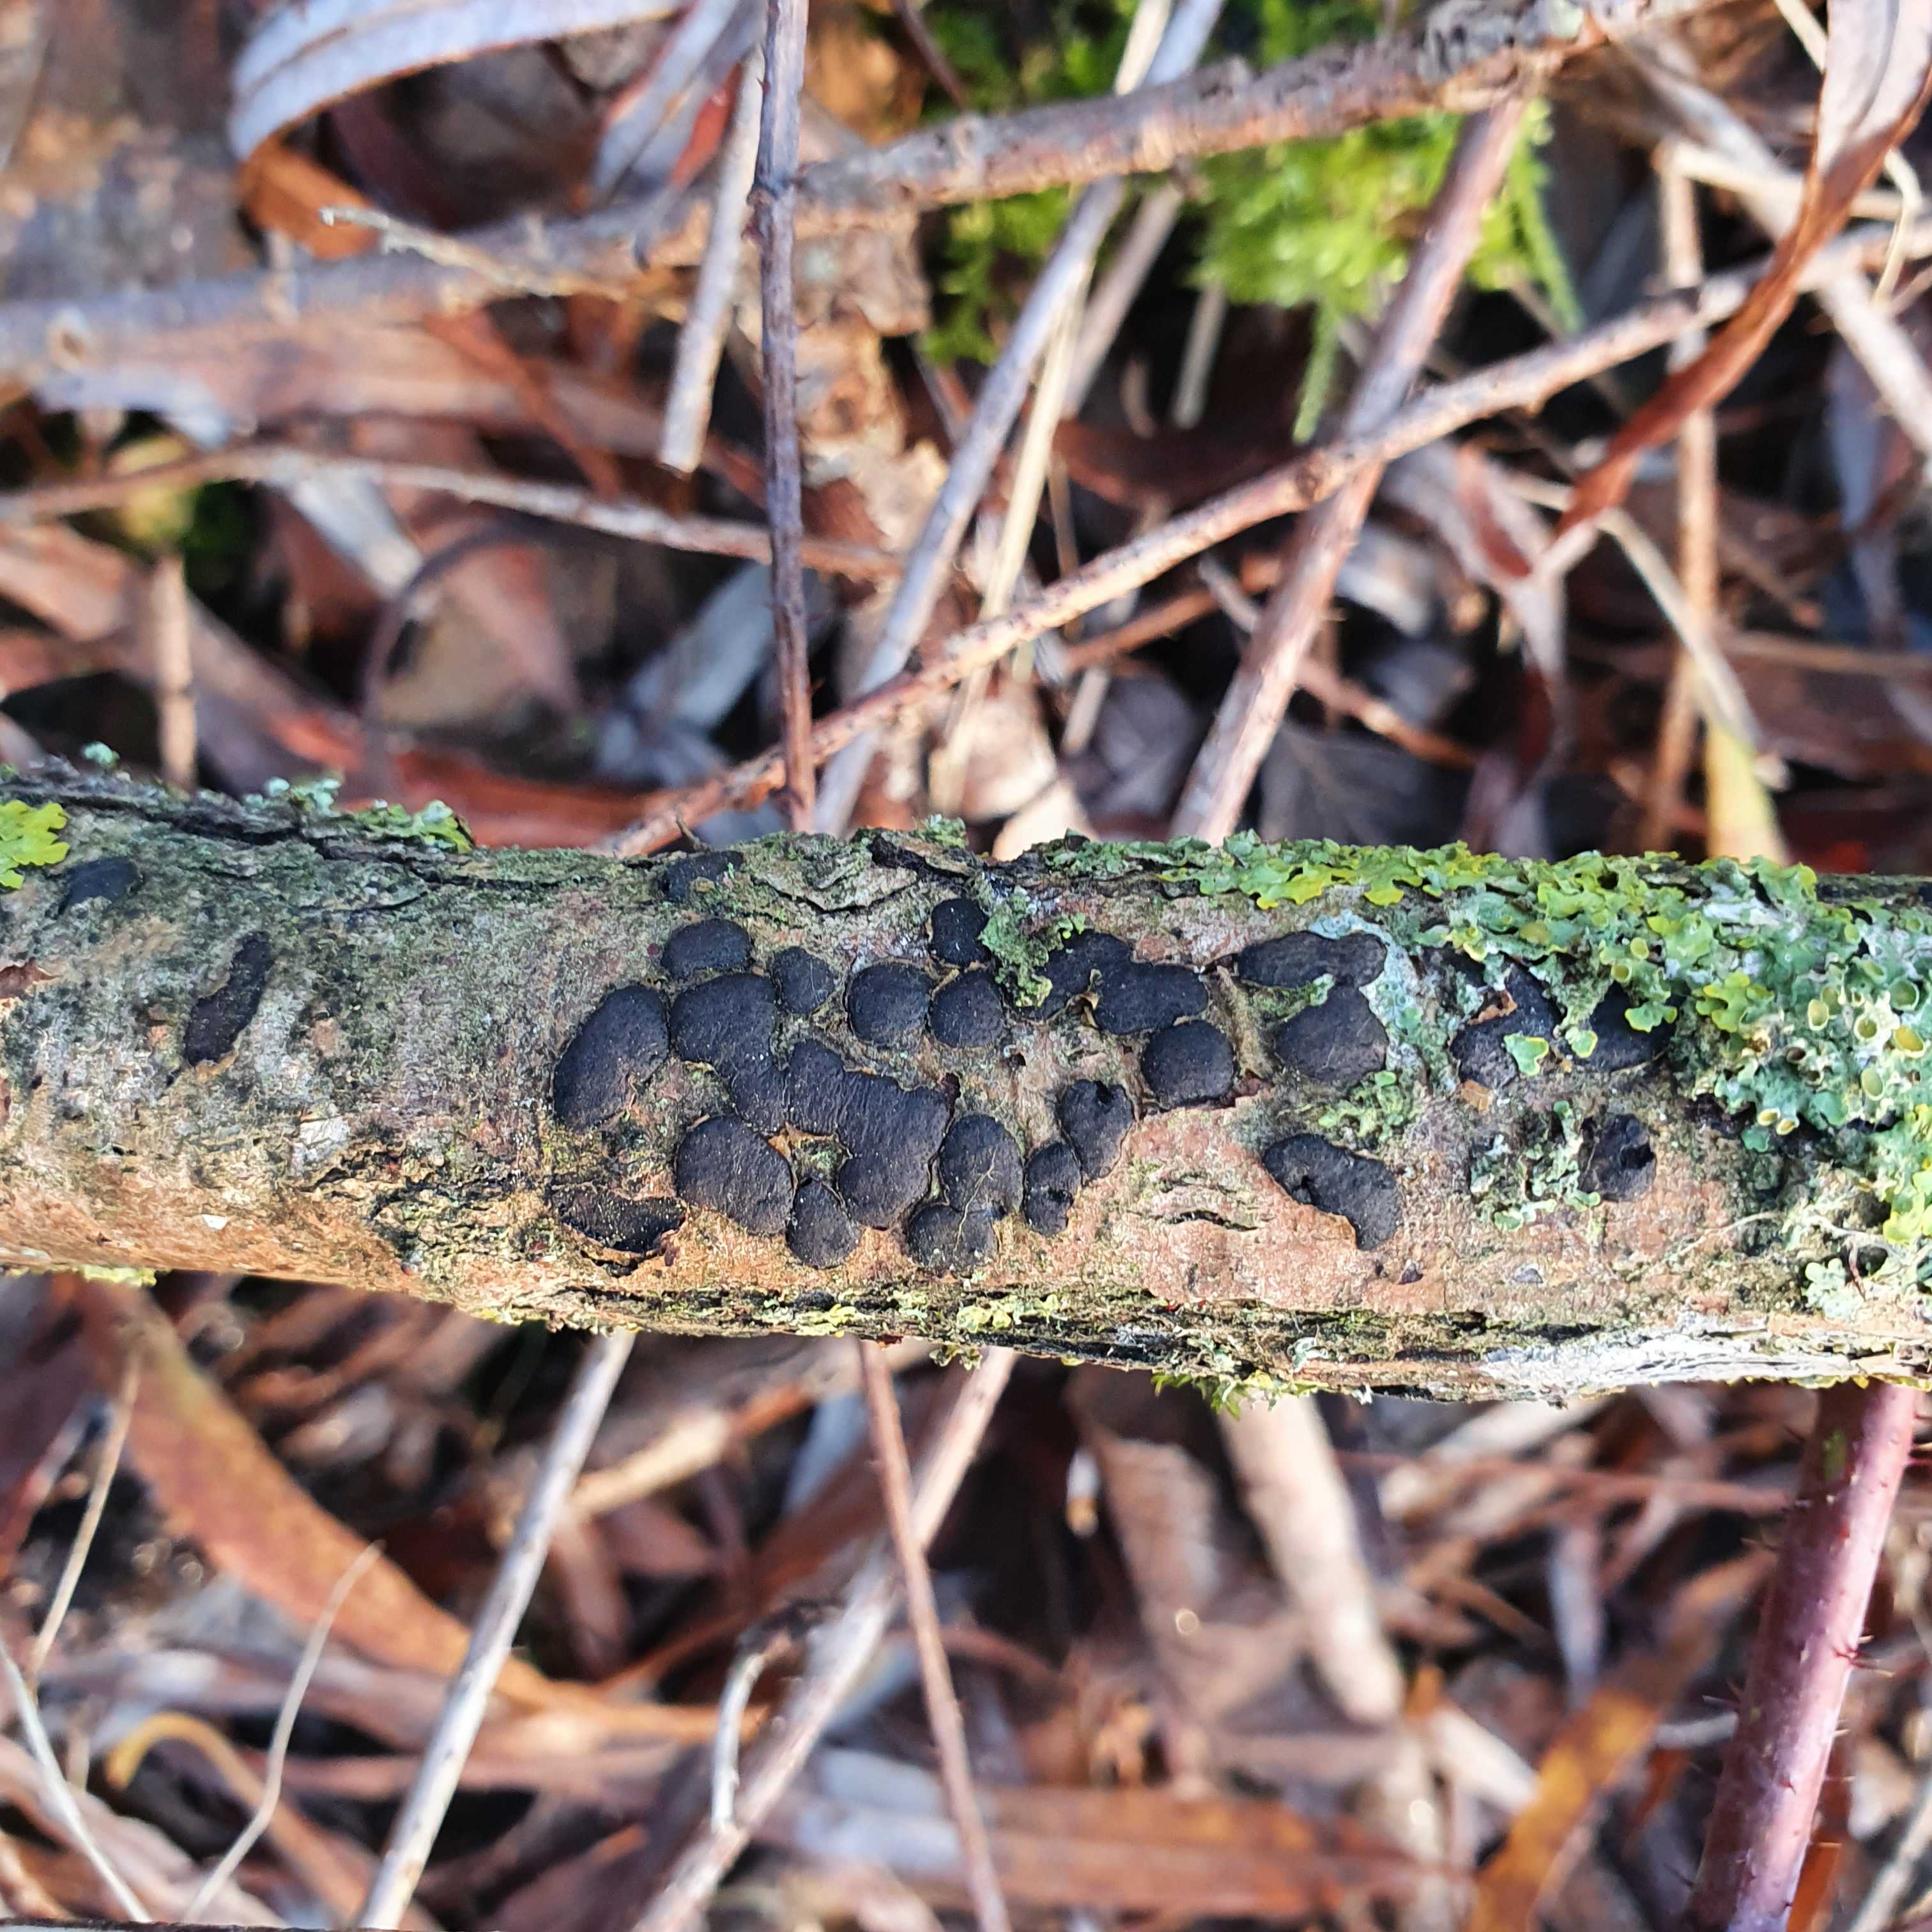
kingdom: Fungi
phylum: Ascomycota
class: Sordariomycetes
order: Xylariales
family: Diatrypaceae
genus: Diatrype
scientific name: Diatrype bullata
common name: pile-kulskorpe
